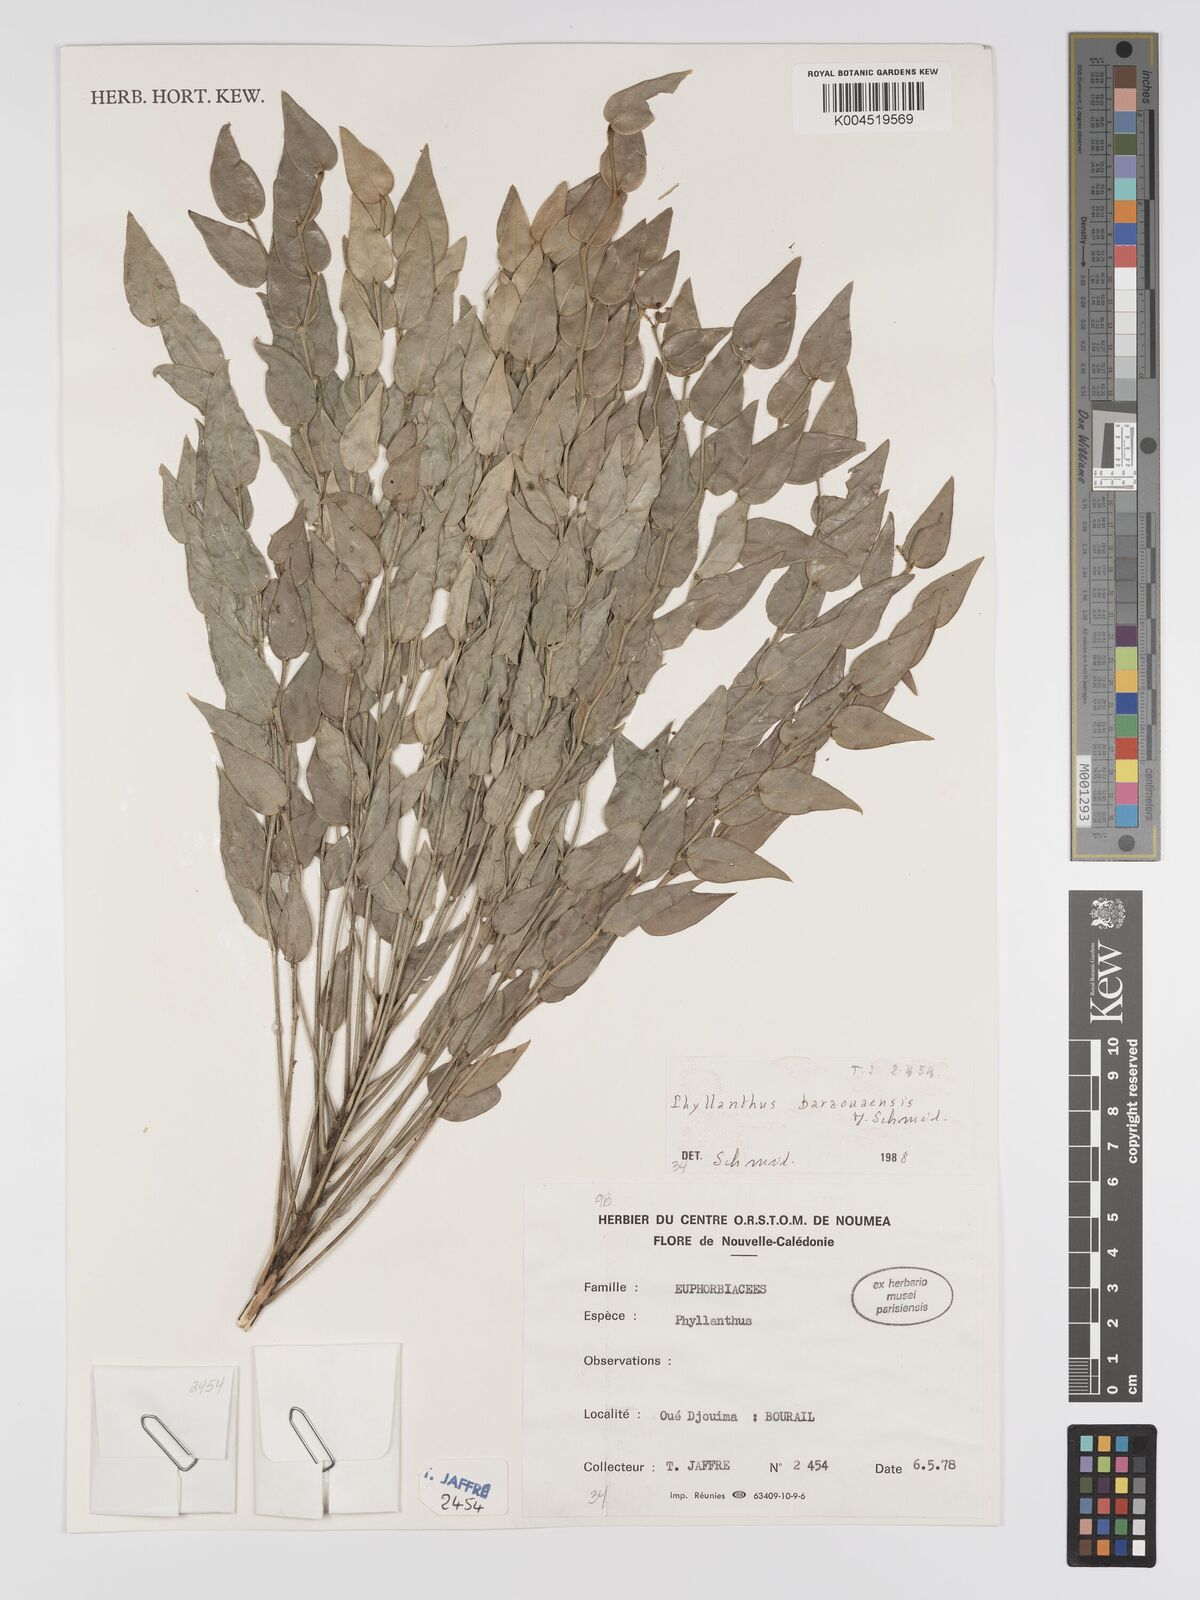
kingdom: Plantae
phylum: Tracheophyta
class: Magnoliopsida
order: Malpighiales
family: Phyllanthaceae
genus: Phyllanthus
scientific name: Phyllanthus baraouaensis
